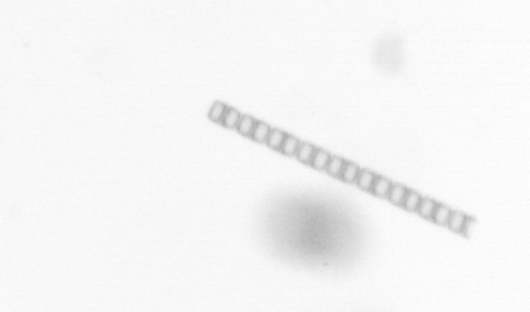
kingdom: Chromista
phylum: Ochrophyta
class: Bacillariophyceae
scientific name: Bacillariophyceae
